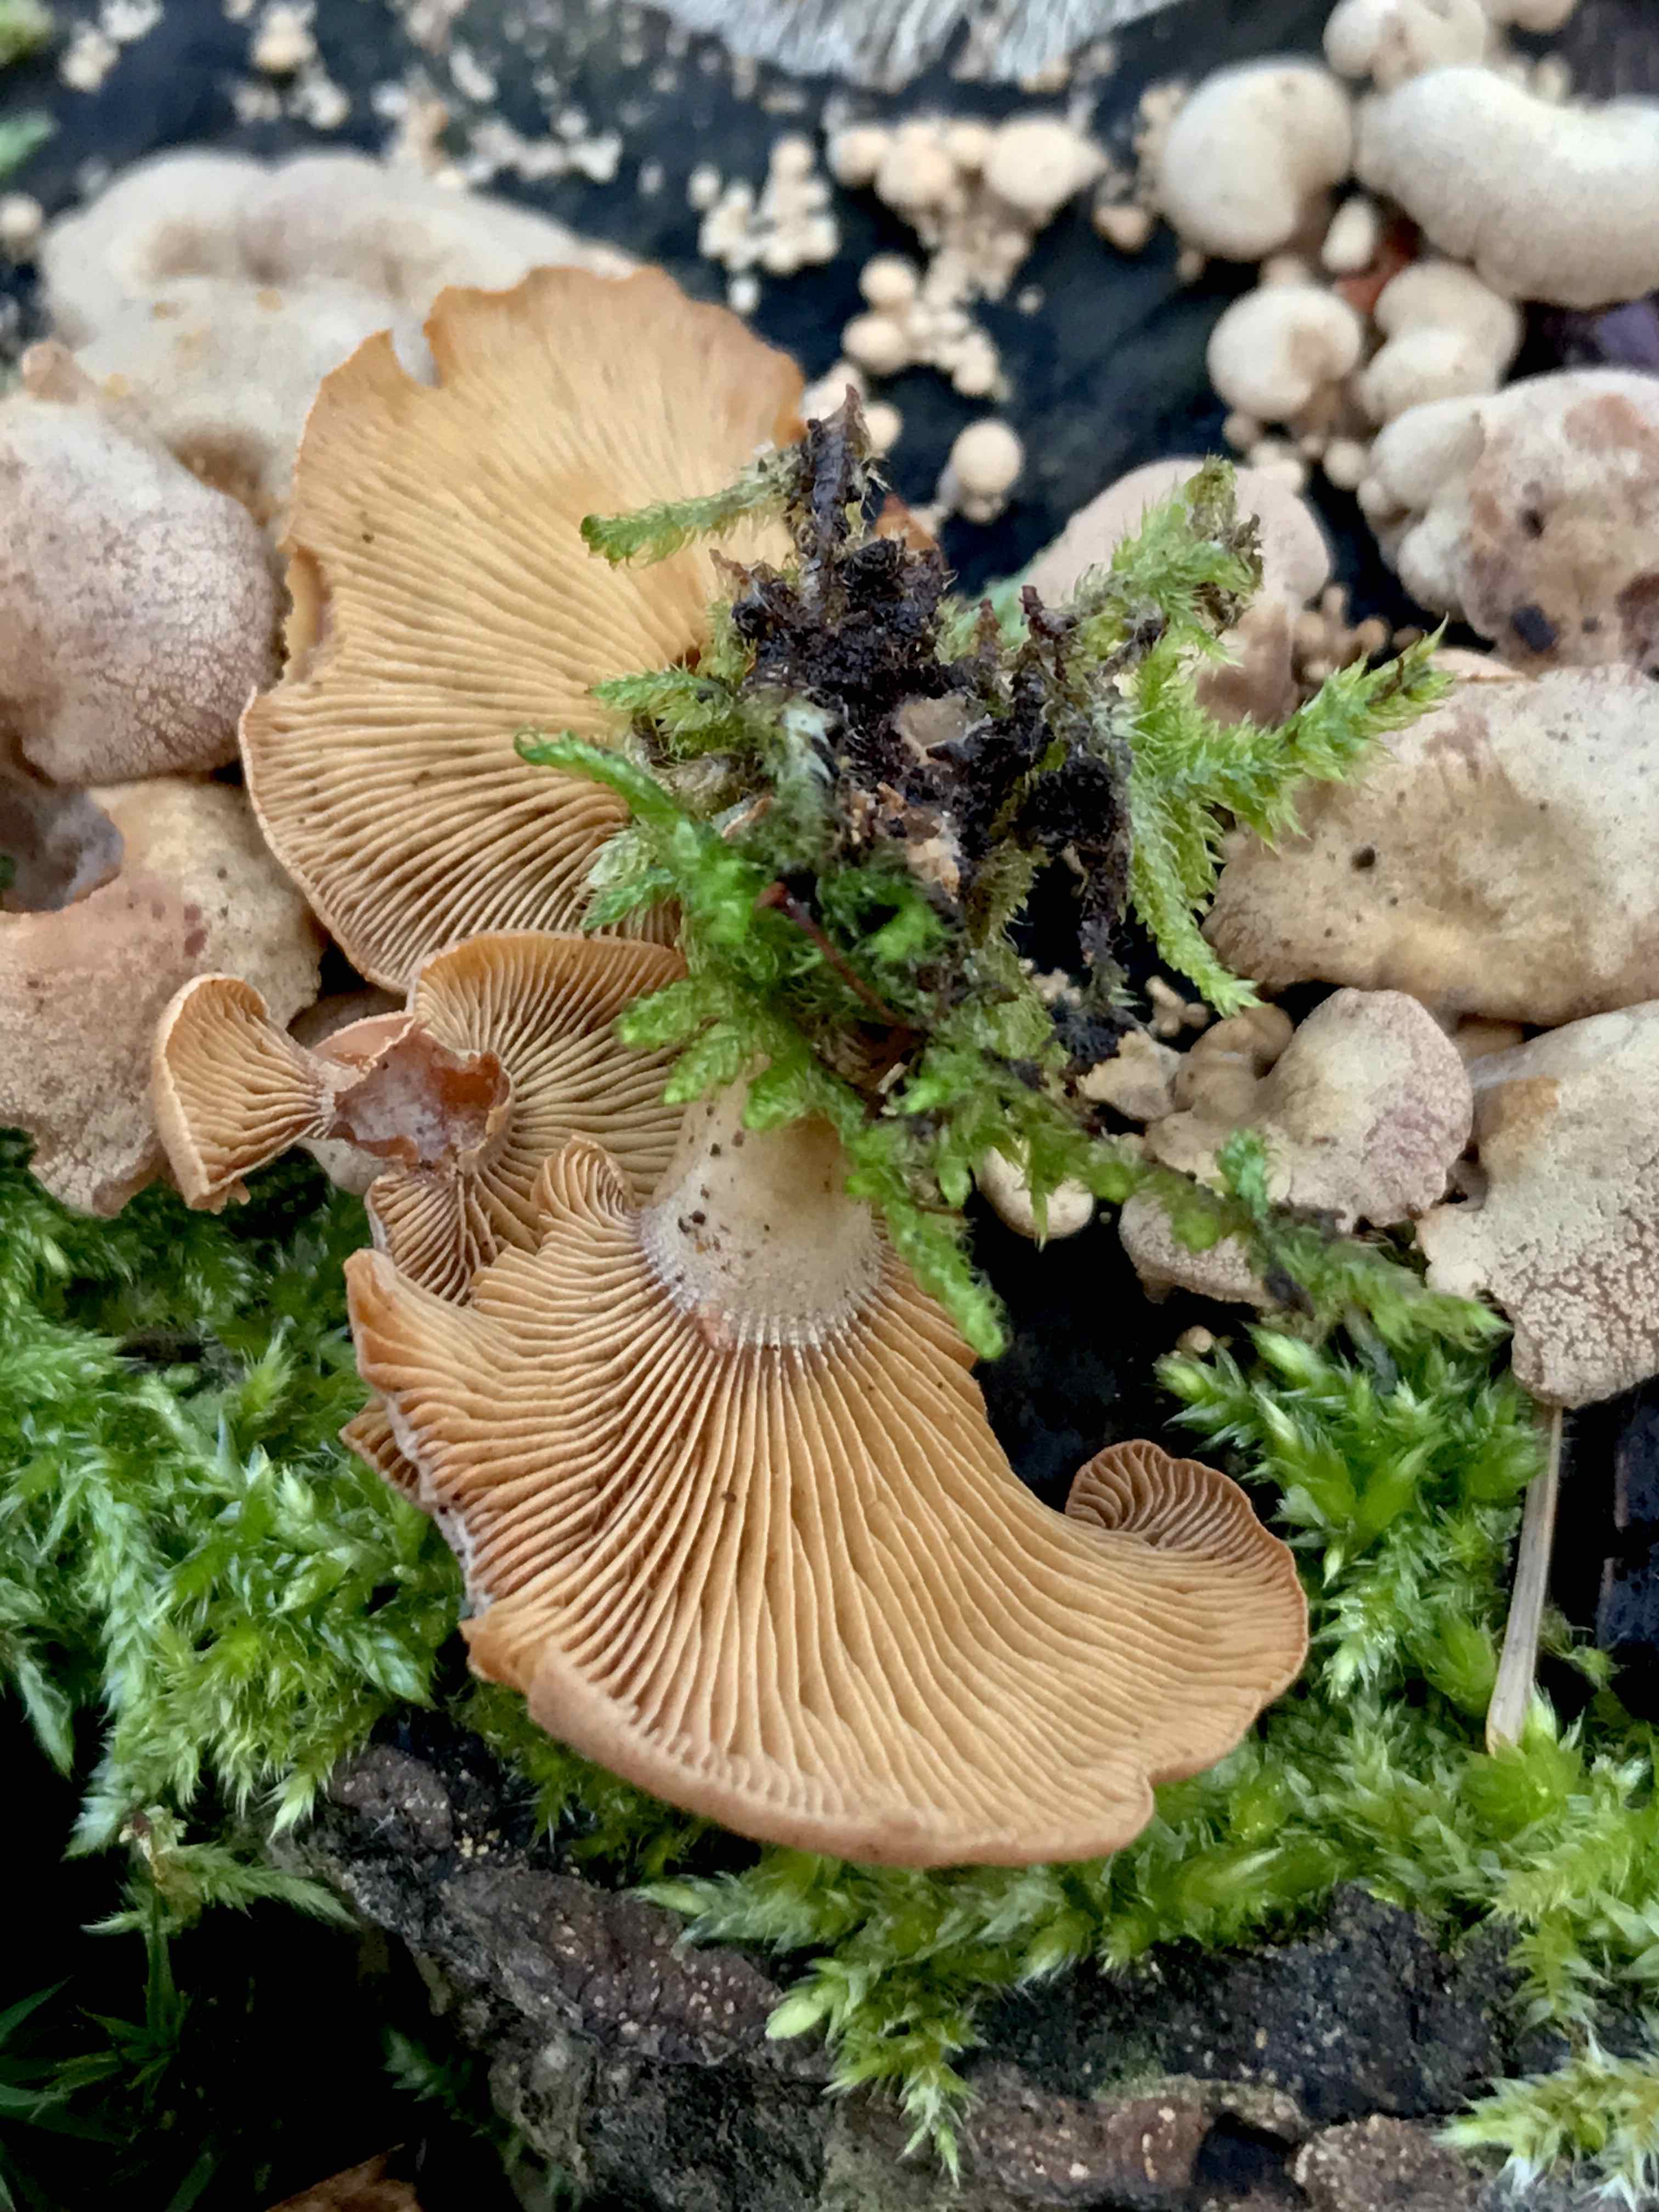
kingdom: Fungi
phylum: Basidiomycota
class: Agaricomycetes
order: Agaricales
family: Mycenaceae
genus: Panellus
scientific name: Panellus stipticus
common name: kliddet epaulethat
